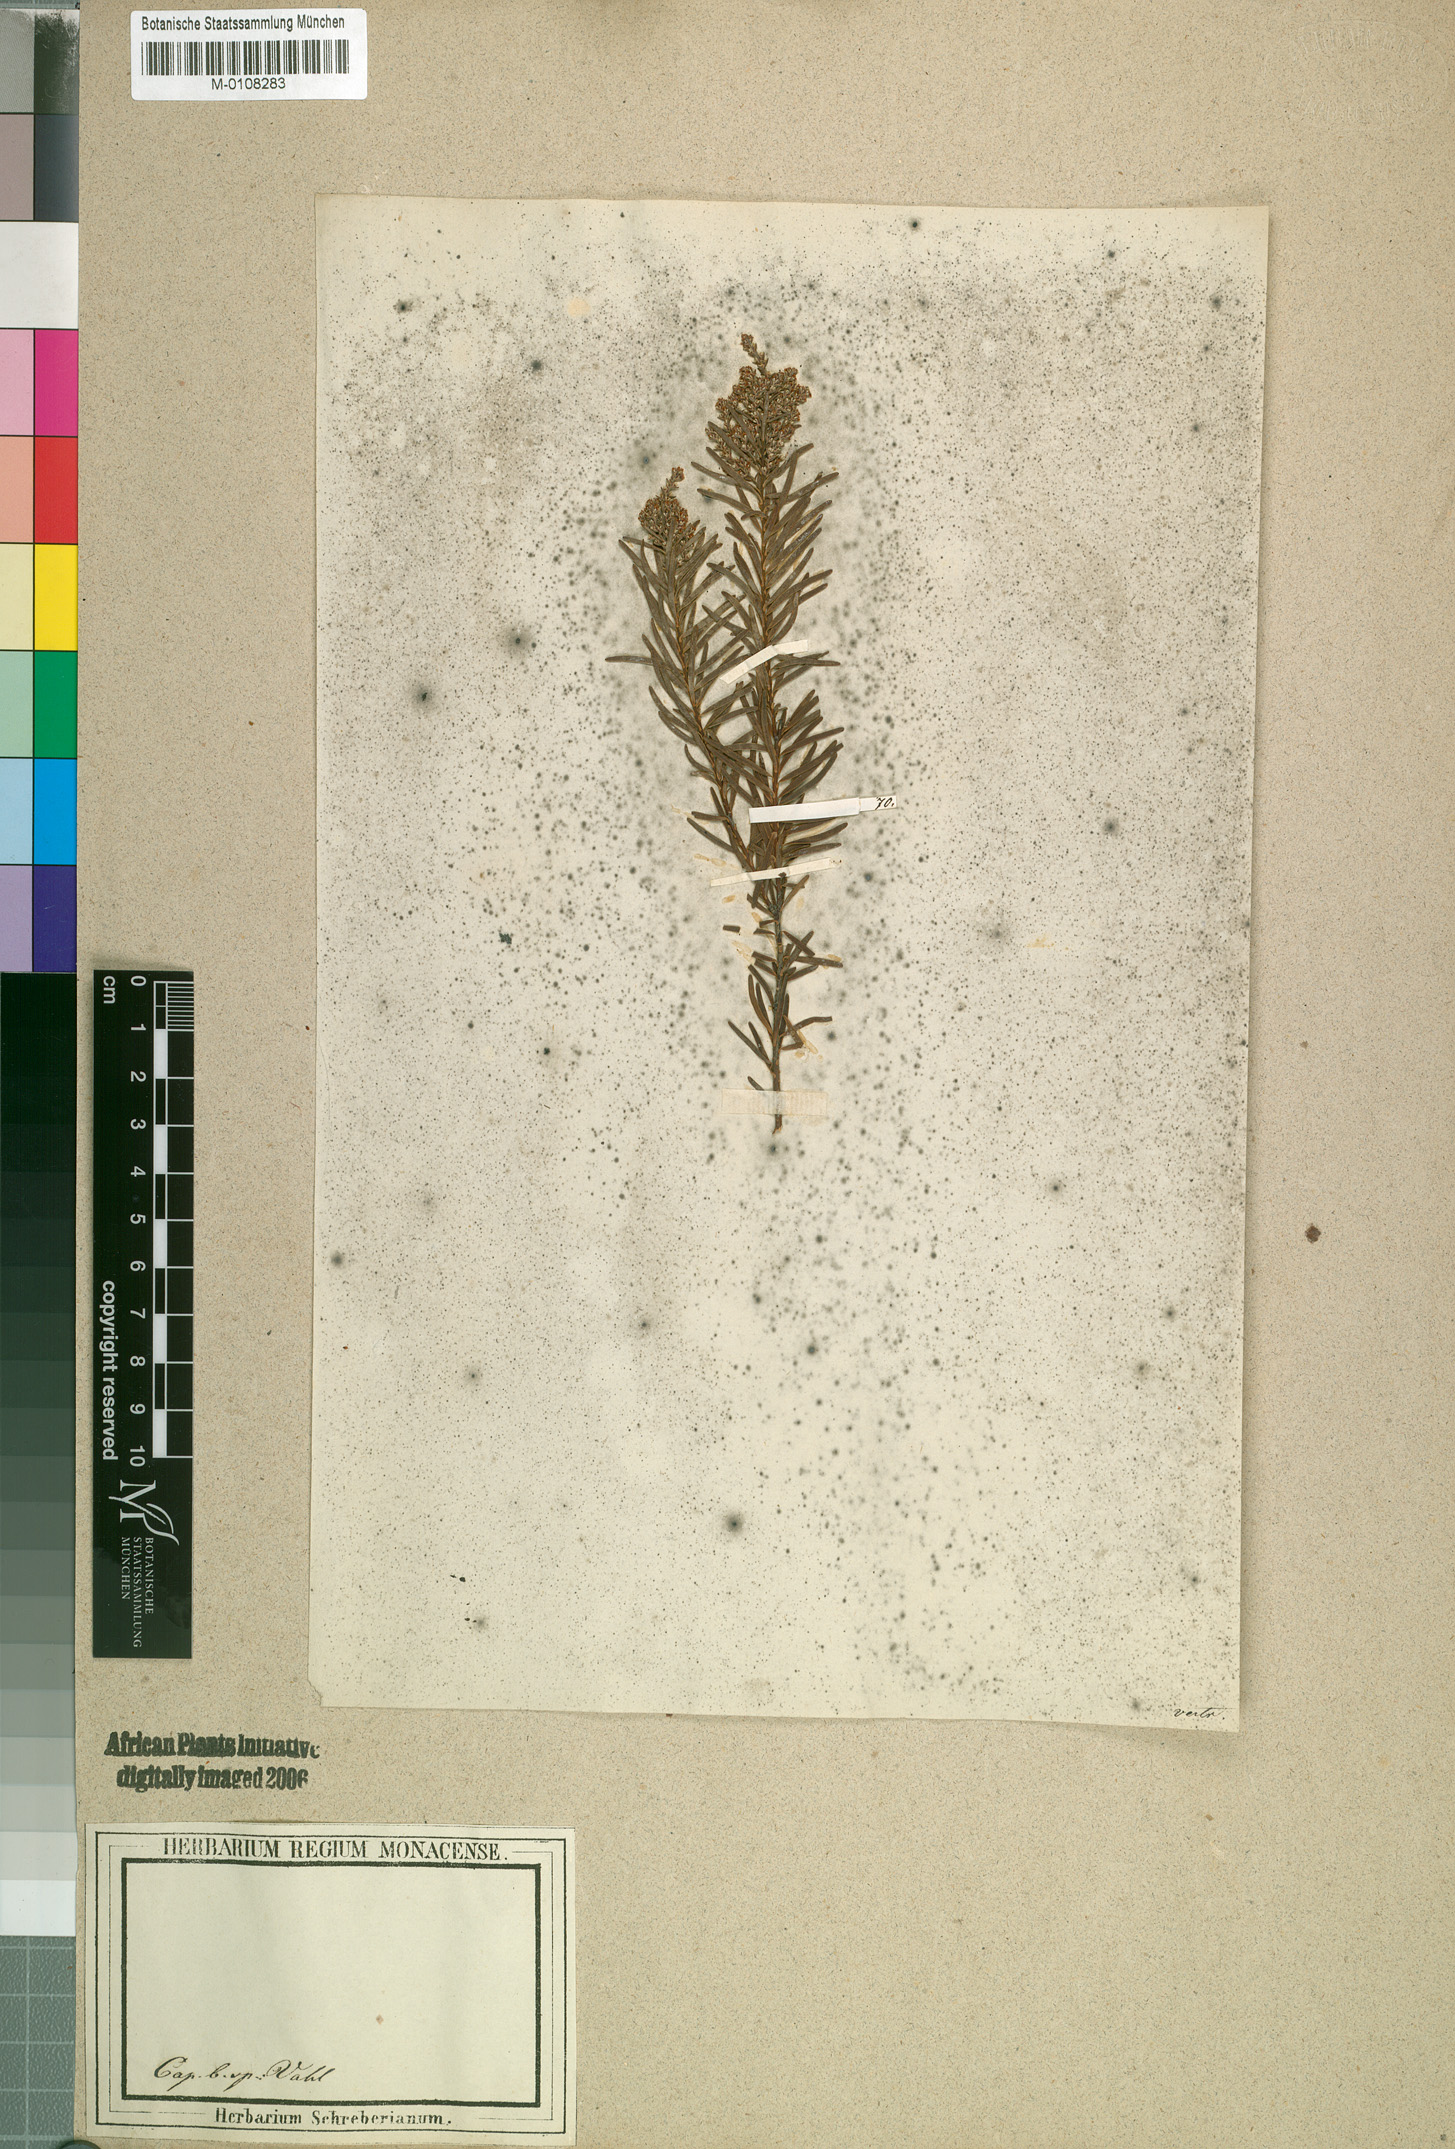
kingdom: Plantae
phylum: Tracheophyta
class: Magnoliopsida
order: Bruniales
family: Bruniaceae
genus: Brunia
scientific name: Brunia africana
